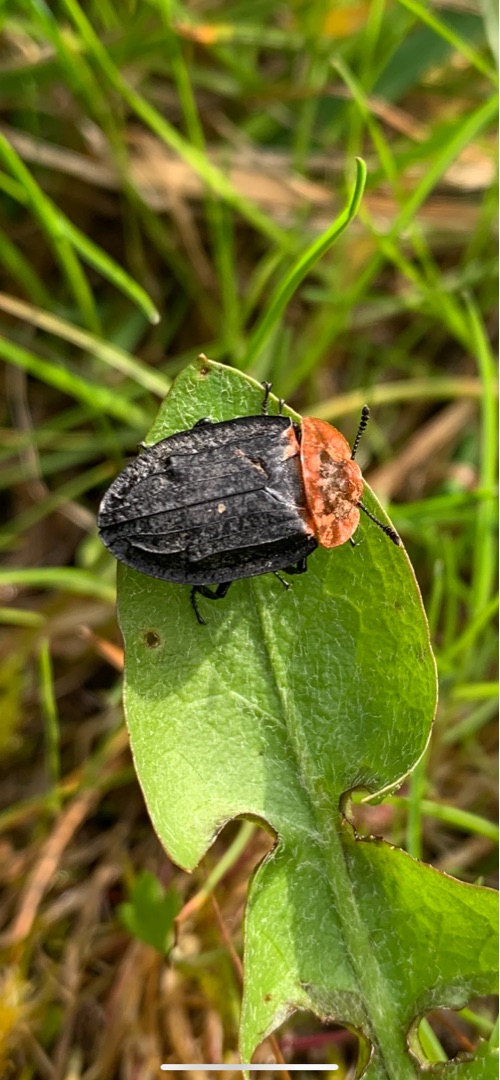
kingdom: Animalia
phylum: Arthropoda
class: Insecta
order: Coleoptera
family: Staphylinidae
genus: Oiceoptoma
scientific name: Oiceoptoma thoracicum
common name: Rødbrystet ådselbille
